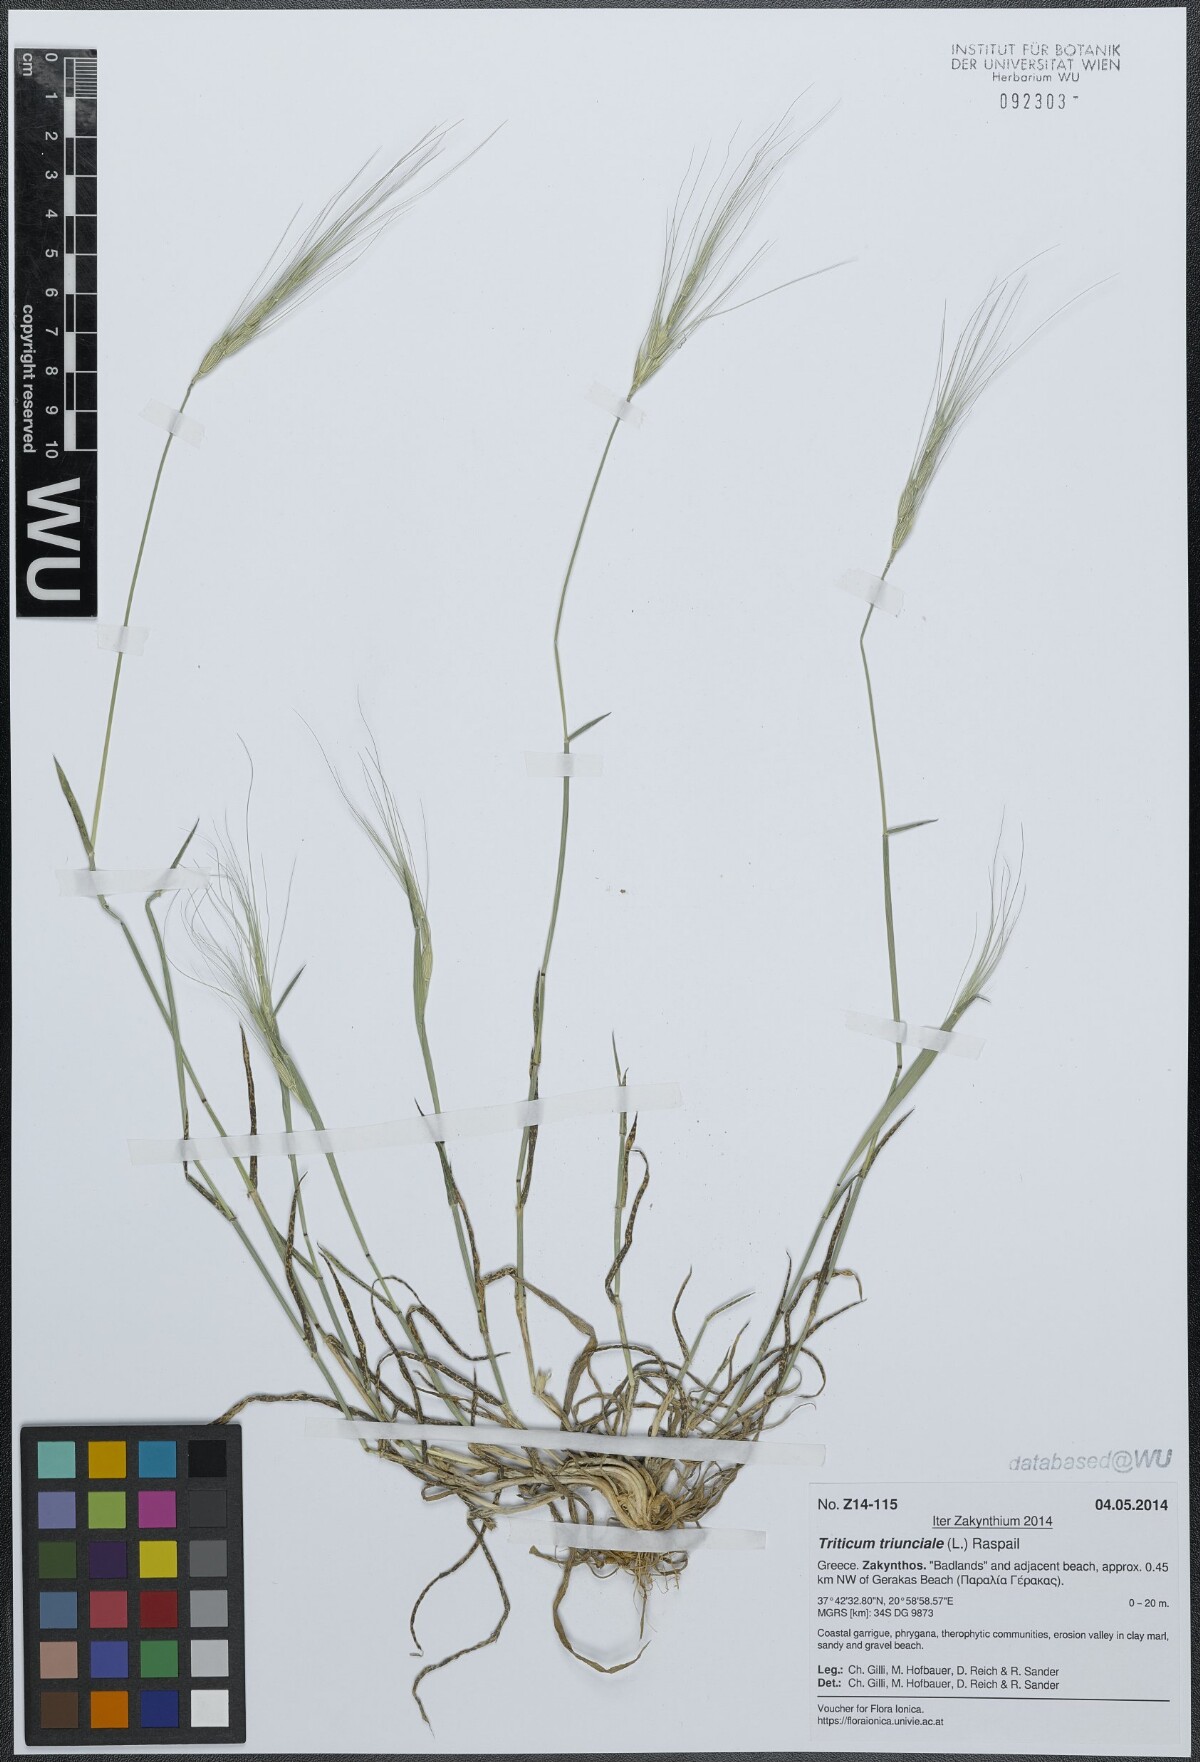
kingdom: Plantae
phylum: Tracheophyta
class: Liliopsida
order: Poales
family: Poaceae
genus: Aegilops
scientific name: Aegilops triuncialis
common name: Barb goat grass
